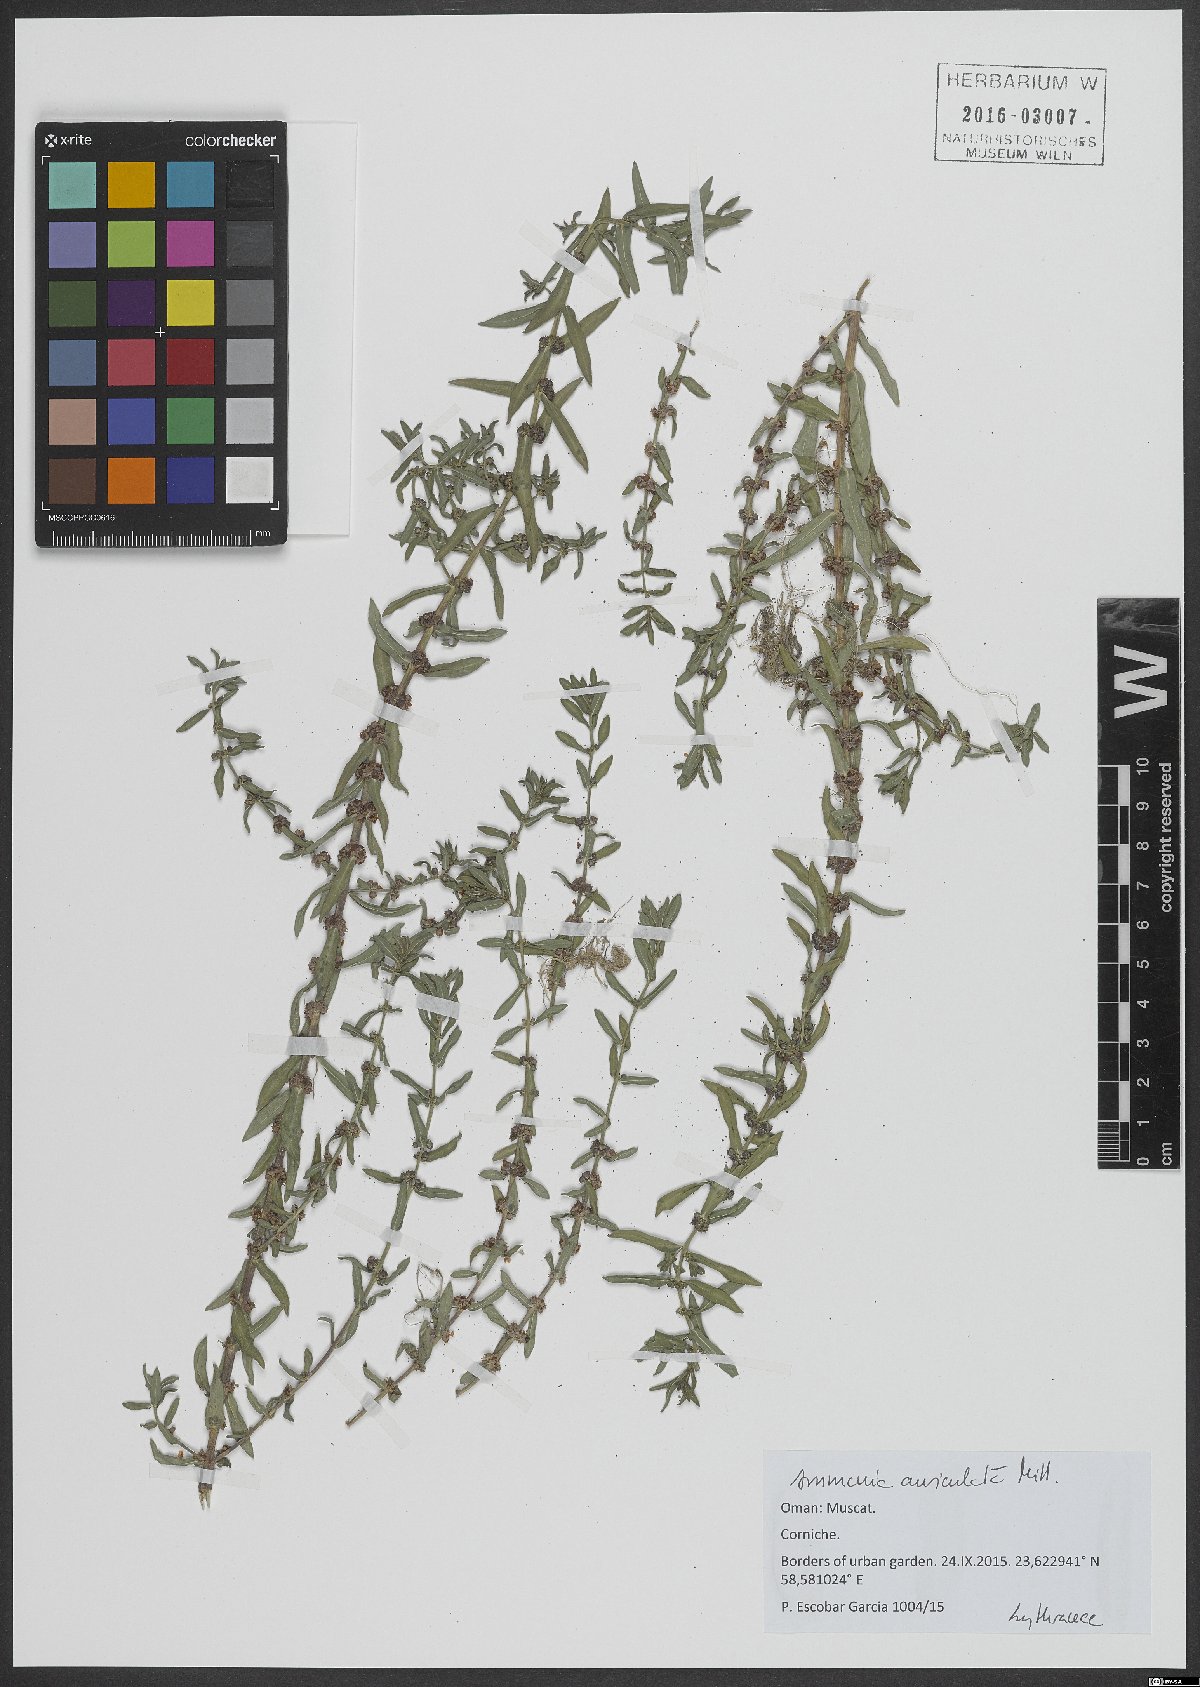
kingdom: Plantae
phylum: Tracheophyta
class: Magnoliopsida
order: Myrtales
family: Lythraceae
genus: Ammannia
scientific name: Ammannia auriculata
